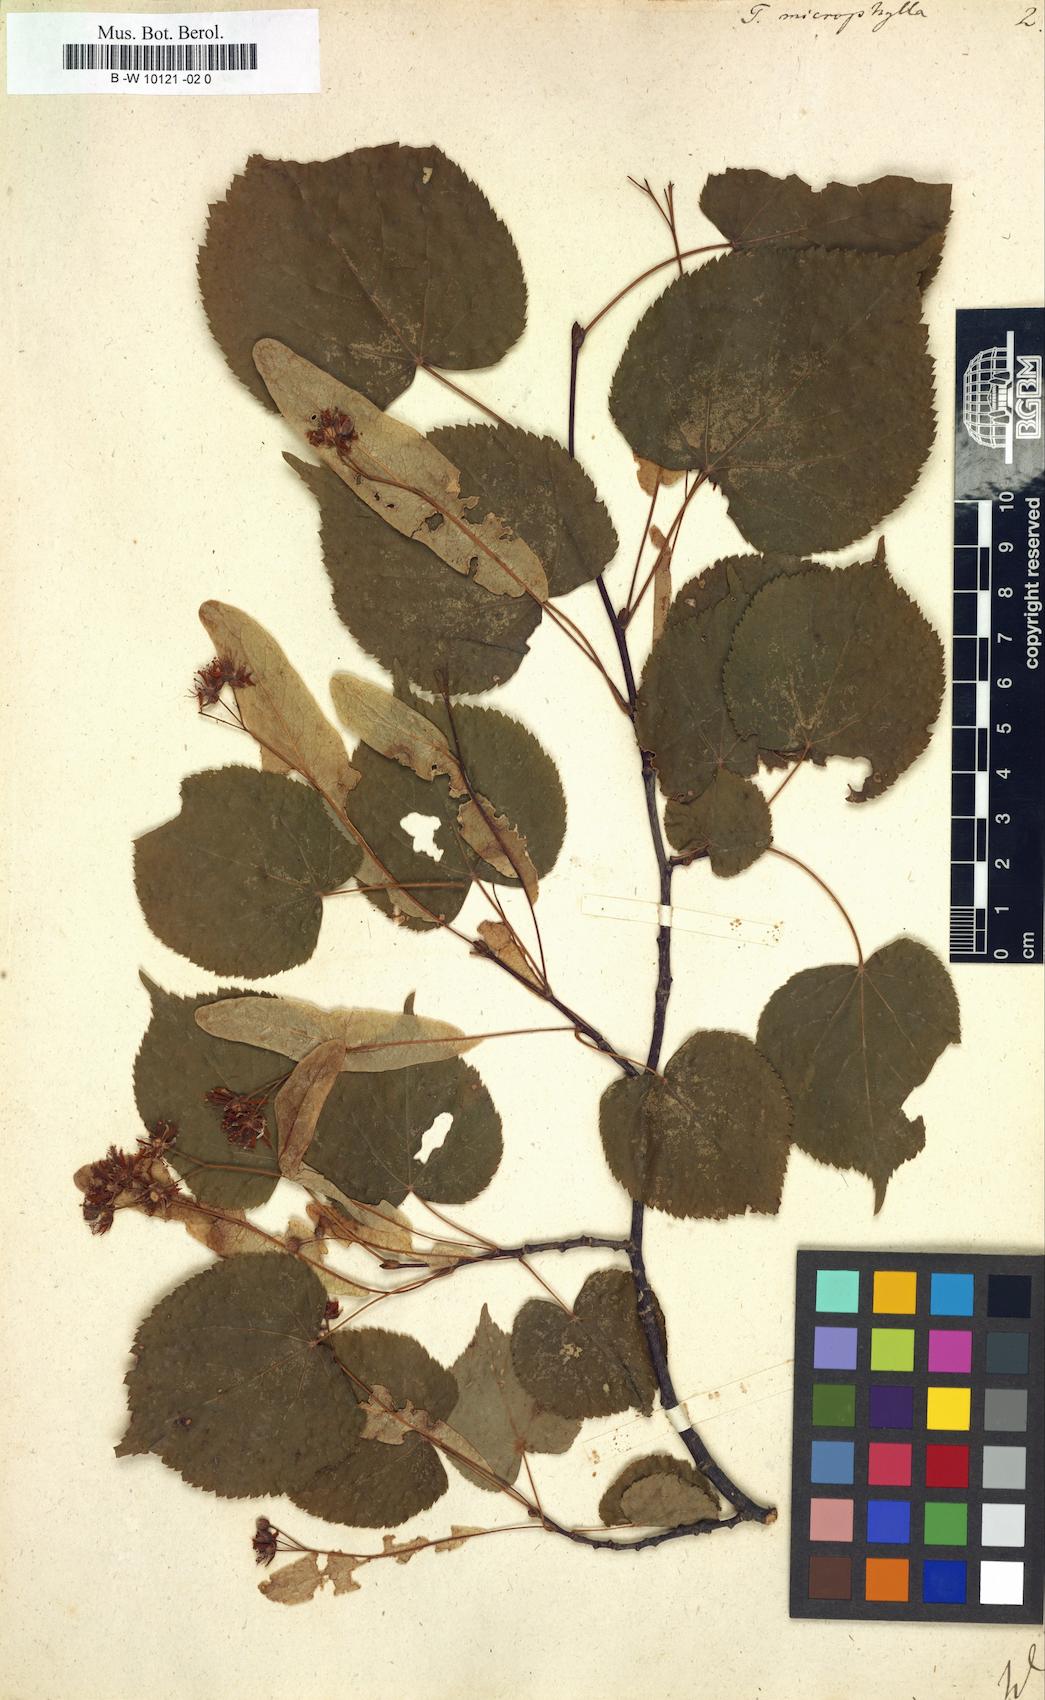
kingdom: Plantae
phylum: Tracheophyta
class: Magnoliopsida
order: Malvales
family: Malvaceae
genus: Tilia
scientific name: Tilia cordata
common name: Small-leaved lime
